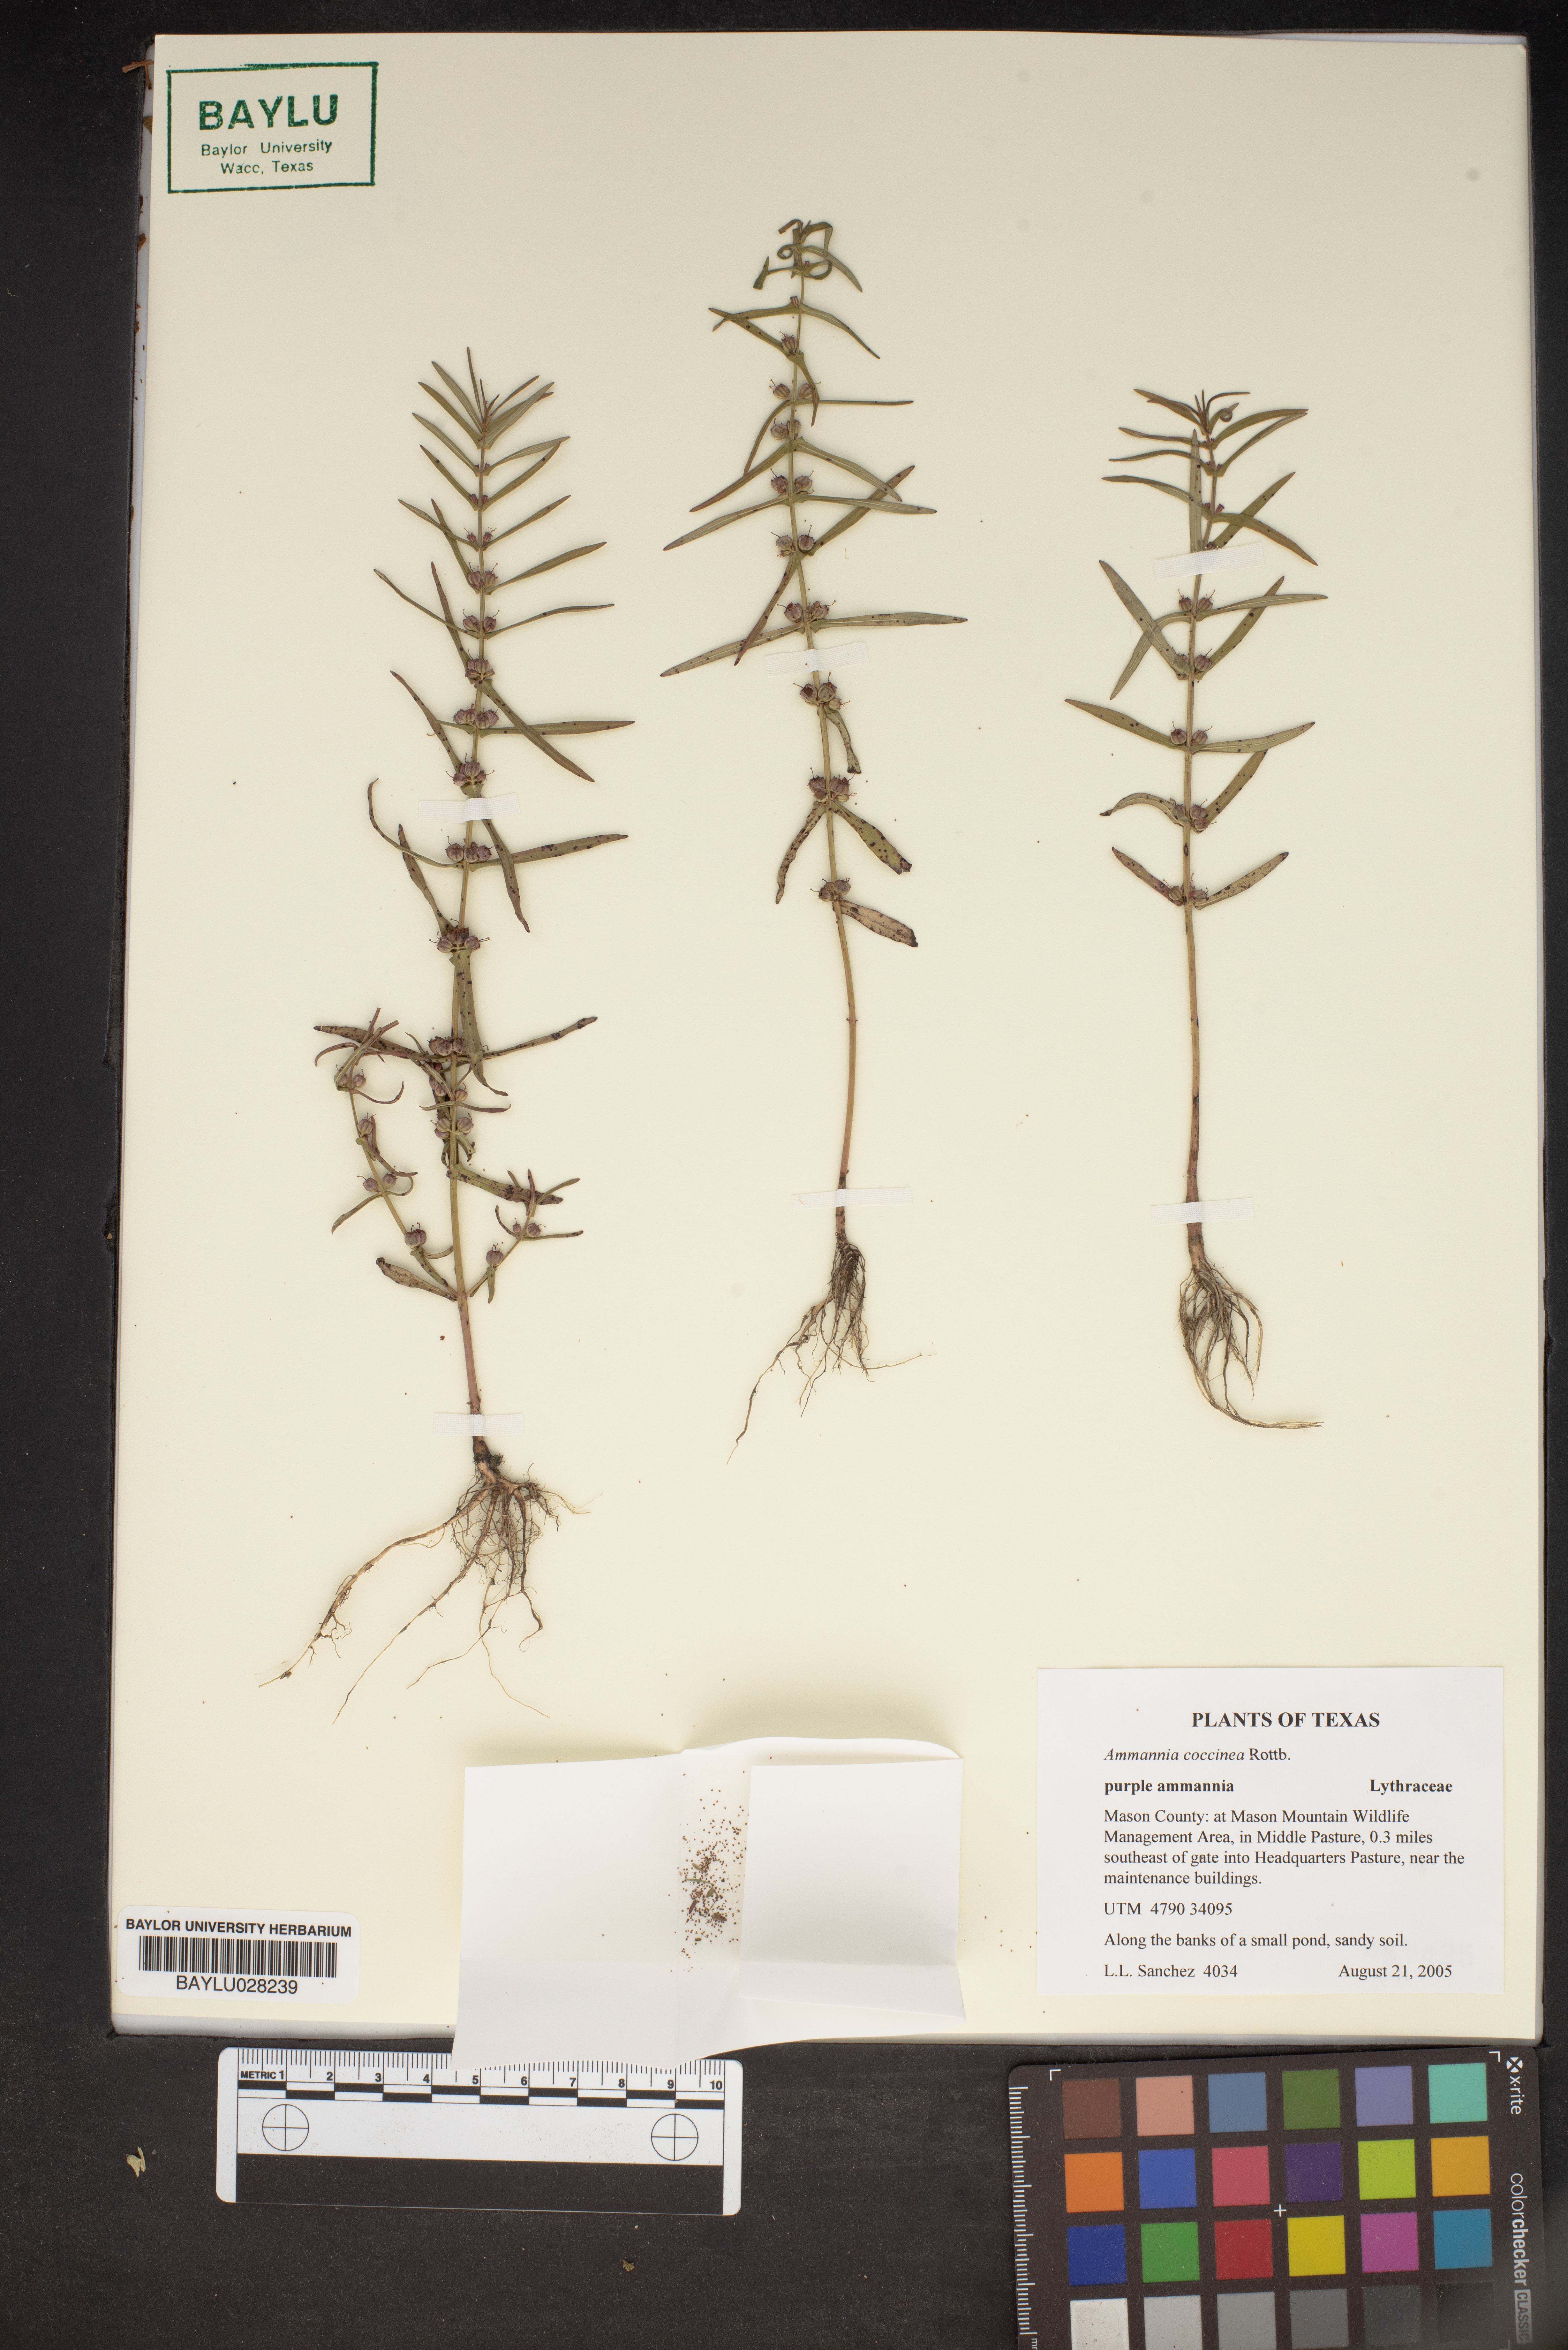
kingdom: Plantae
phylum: Tracheophyta
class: Magnoliopsida
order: Myrtales
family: Lythraceae
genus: Ammannia
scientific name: Ammannia coccinea
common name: Valley redstem
